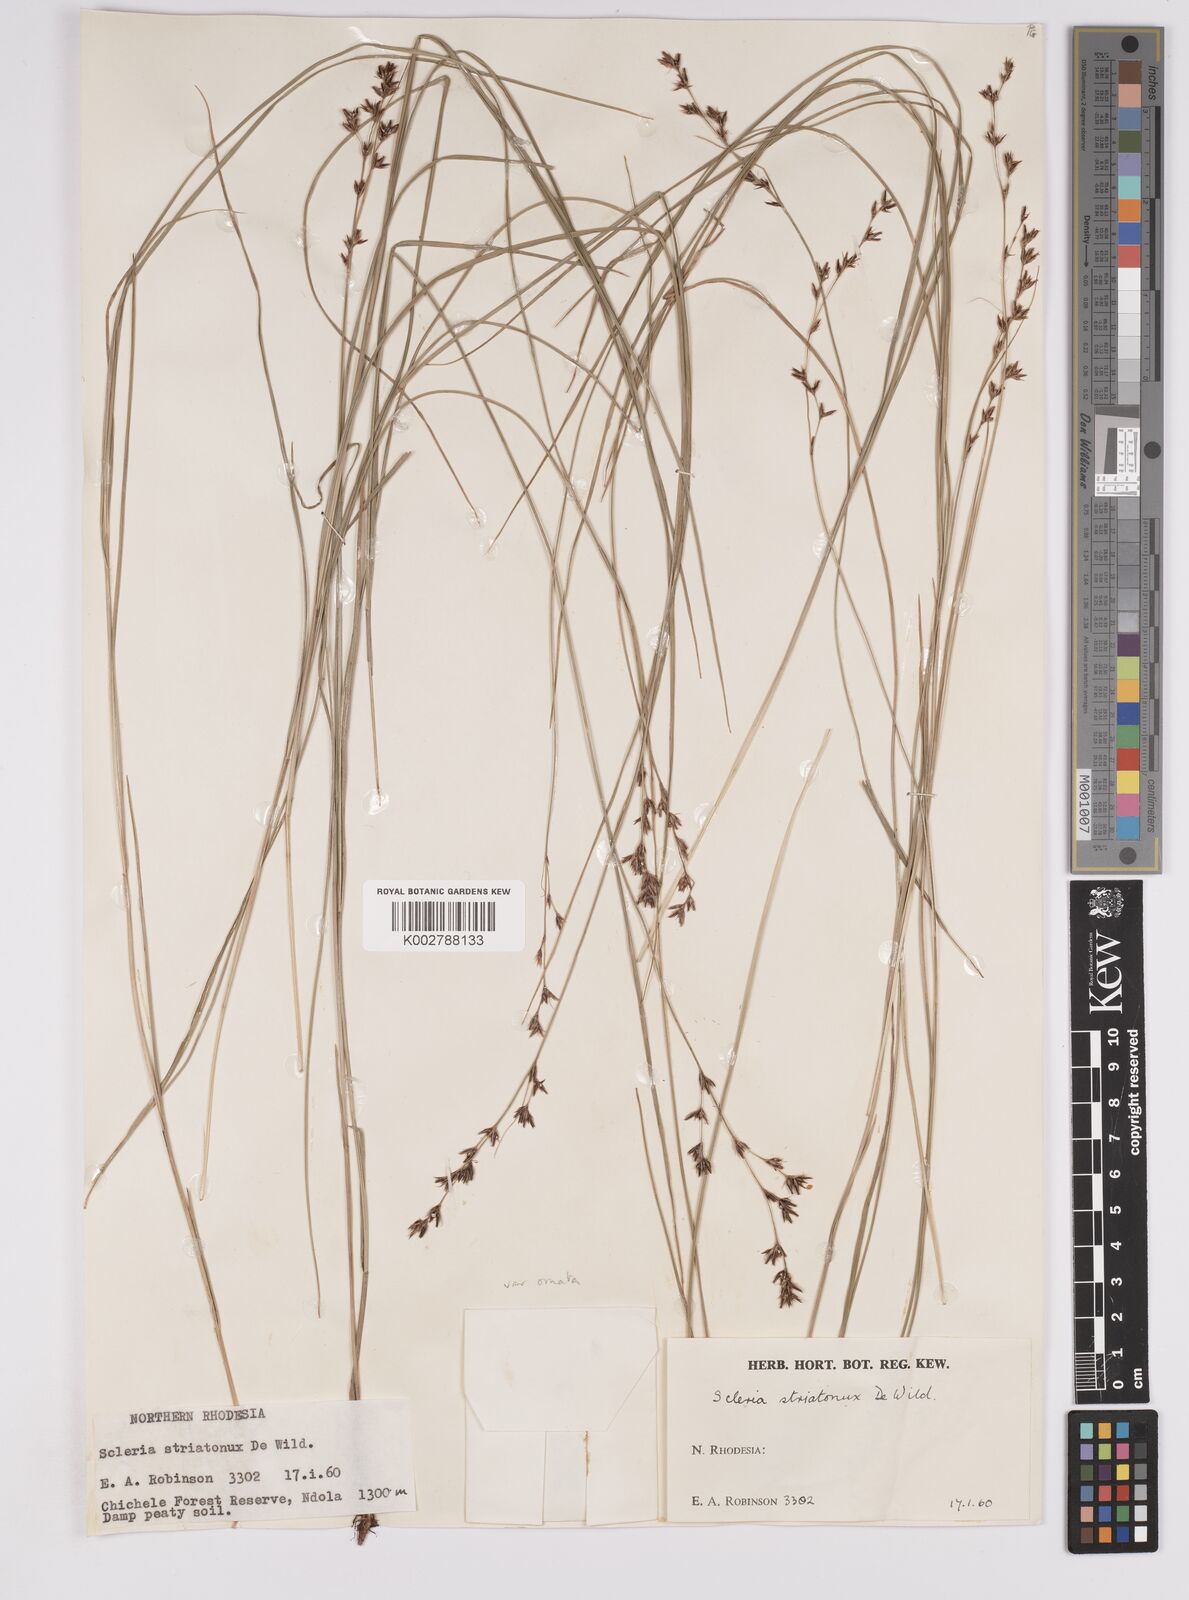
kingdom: Plantae
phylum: Tracheophyta
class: Liliopsida
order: Poales
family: Cyperaceae
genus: Scleria
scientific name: Scleria woodii
